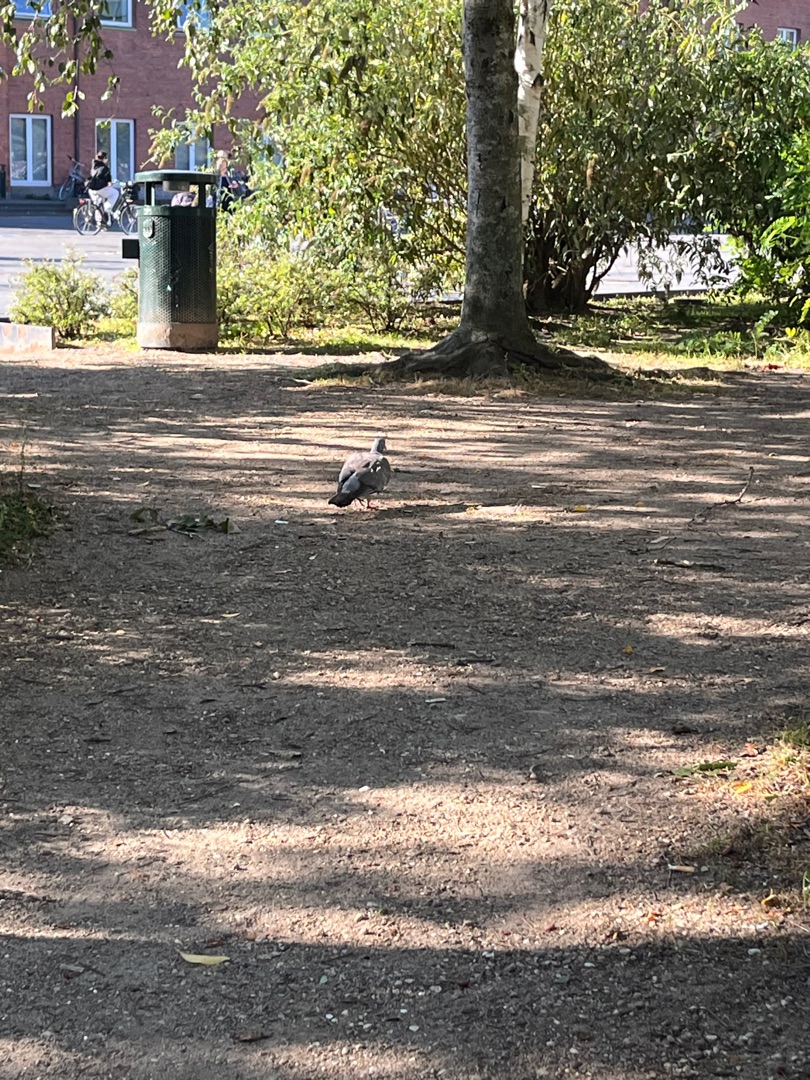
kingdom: Animalia
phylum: Chordata
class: Aves
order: Columbiformes
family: Columbidae
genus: Columba
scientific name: Columba palumbus
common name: Ringdue
